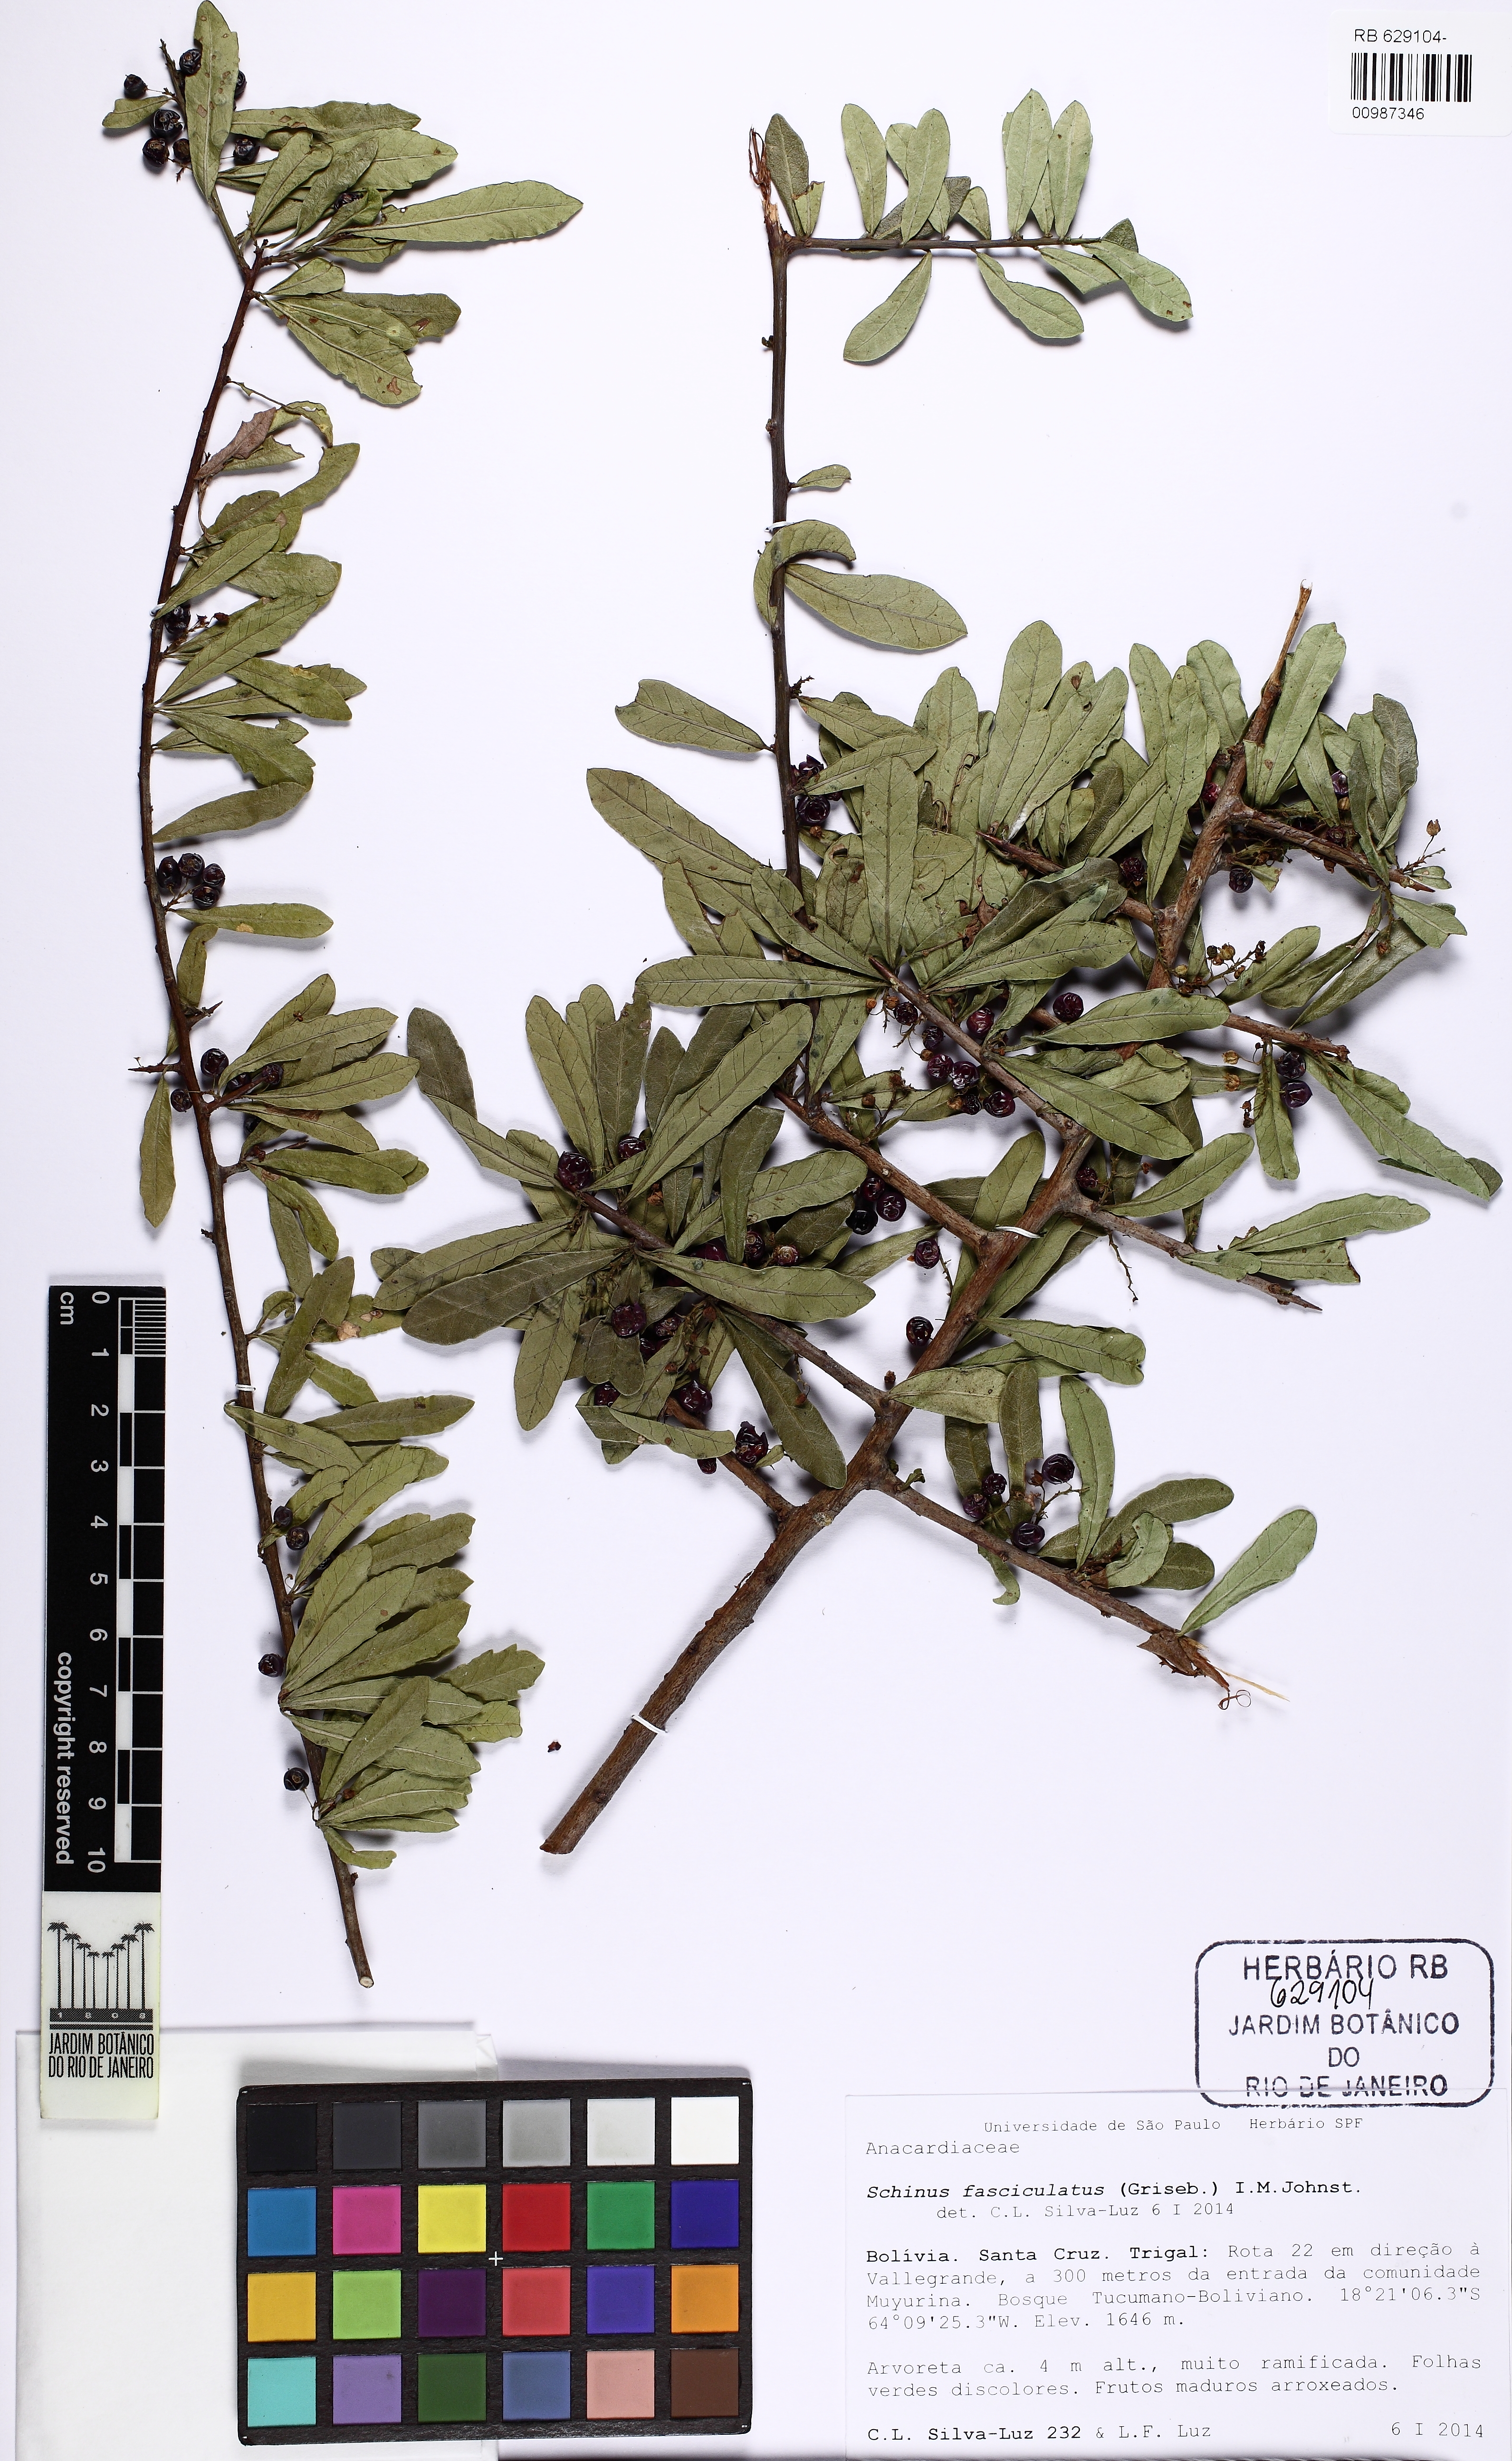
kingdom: Plantae
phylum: Tracheophyta
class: Magnoliopsida
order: Sapindales
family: Anacardiaceae
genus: Schinus
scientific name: Schinus fasciculata
